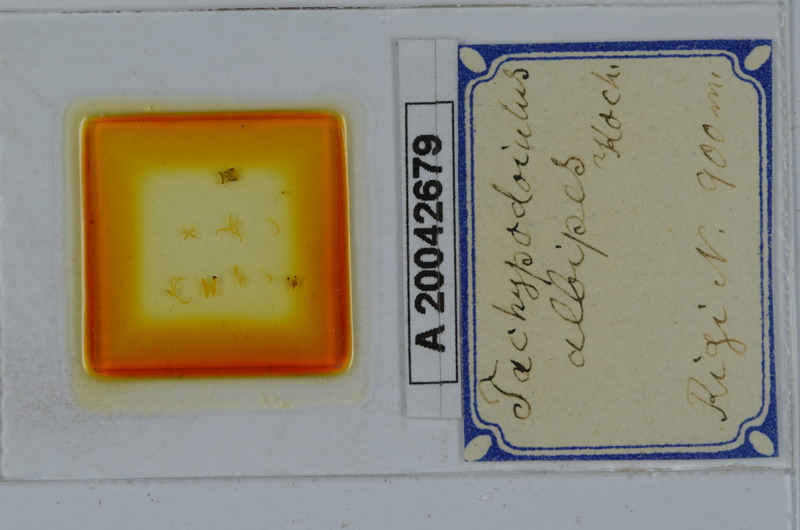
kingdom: Animalia
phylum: Arthropoda
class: Diplopoda
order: Julida
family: Julidae
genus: Tachypodoiulus
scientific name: Tachypodoiulus niger
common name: White-legged snake millipede
